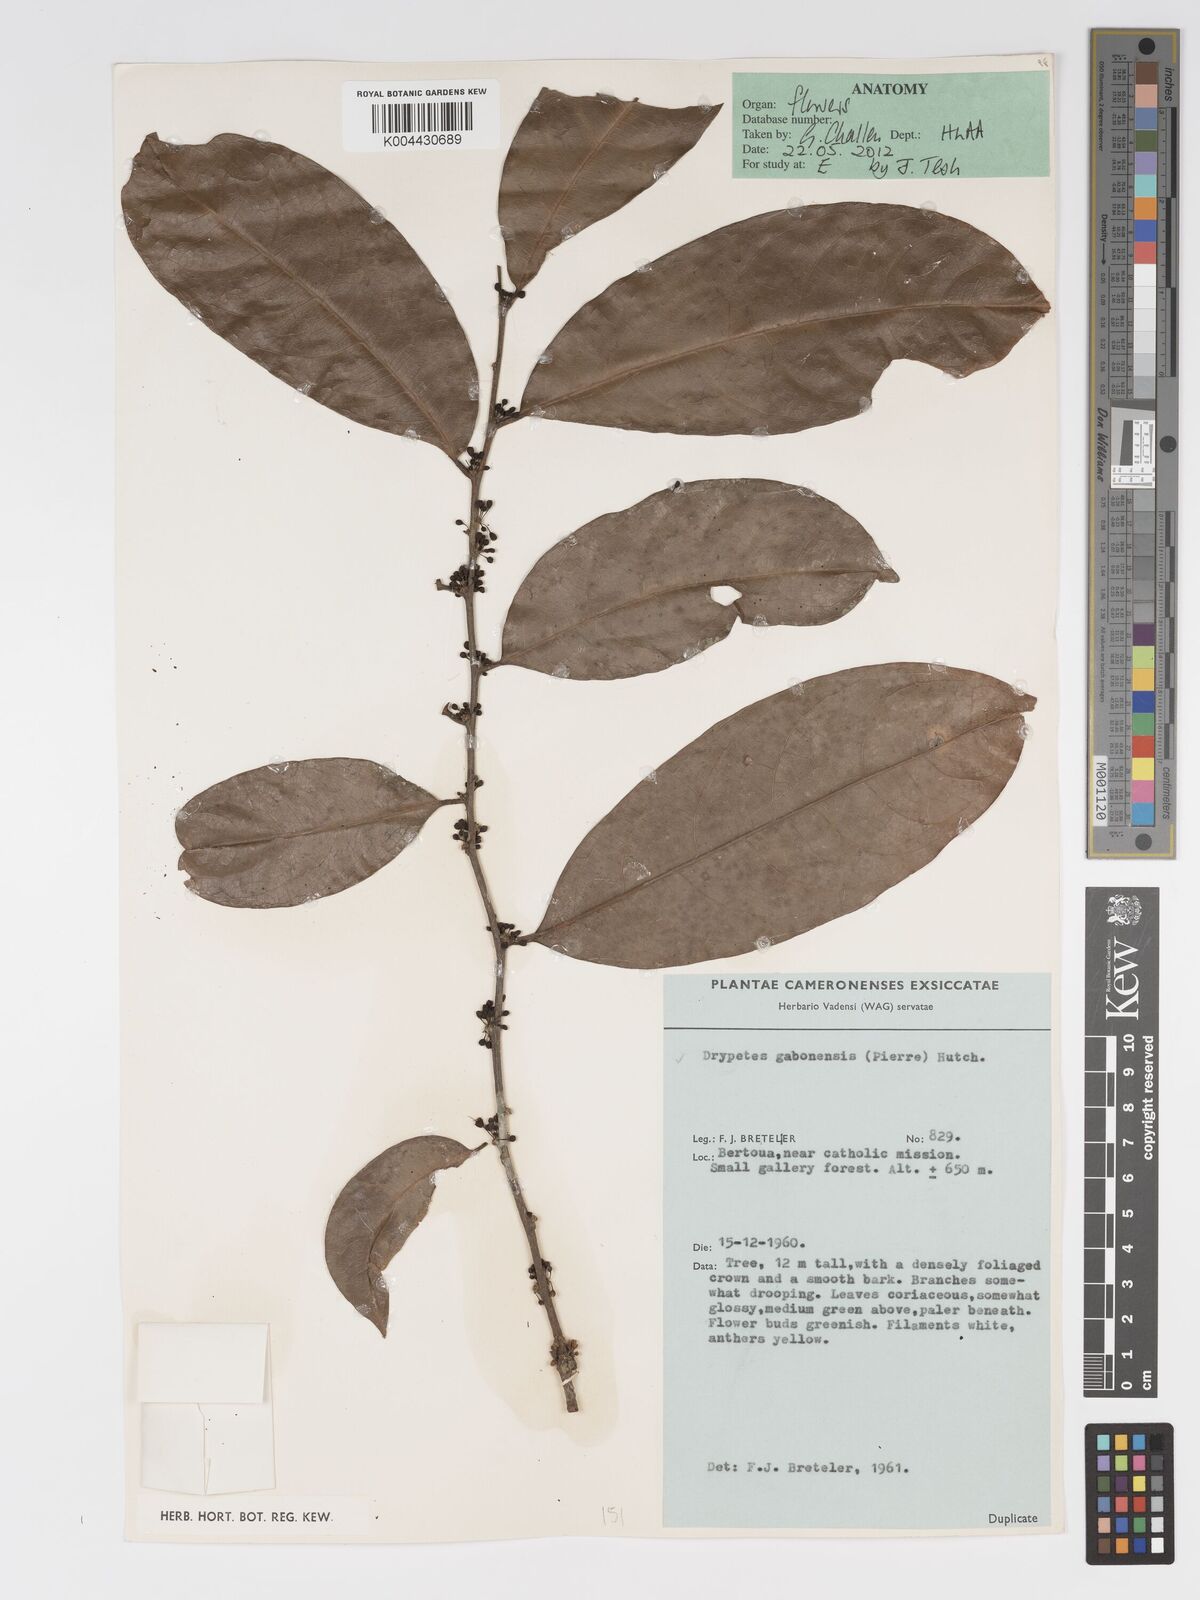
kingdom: Plantae
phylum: Tracheophyta
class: Magnoliopsida
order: Malpighiales
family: Putranjivaceae
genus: Drypetes
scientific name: Drypetes gabonensis
